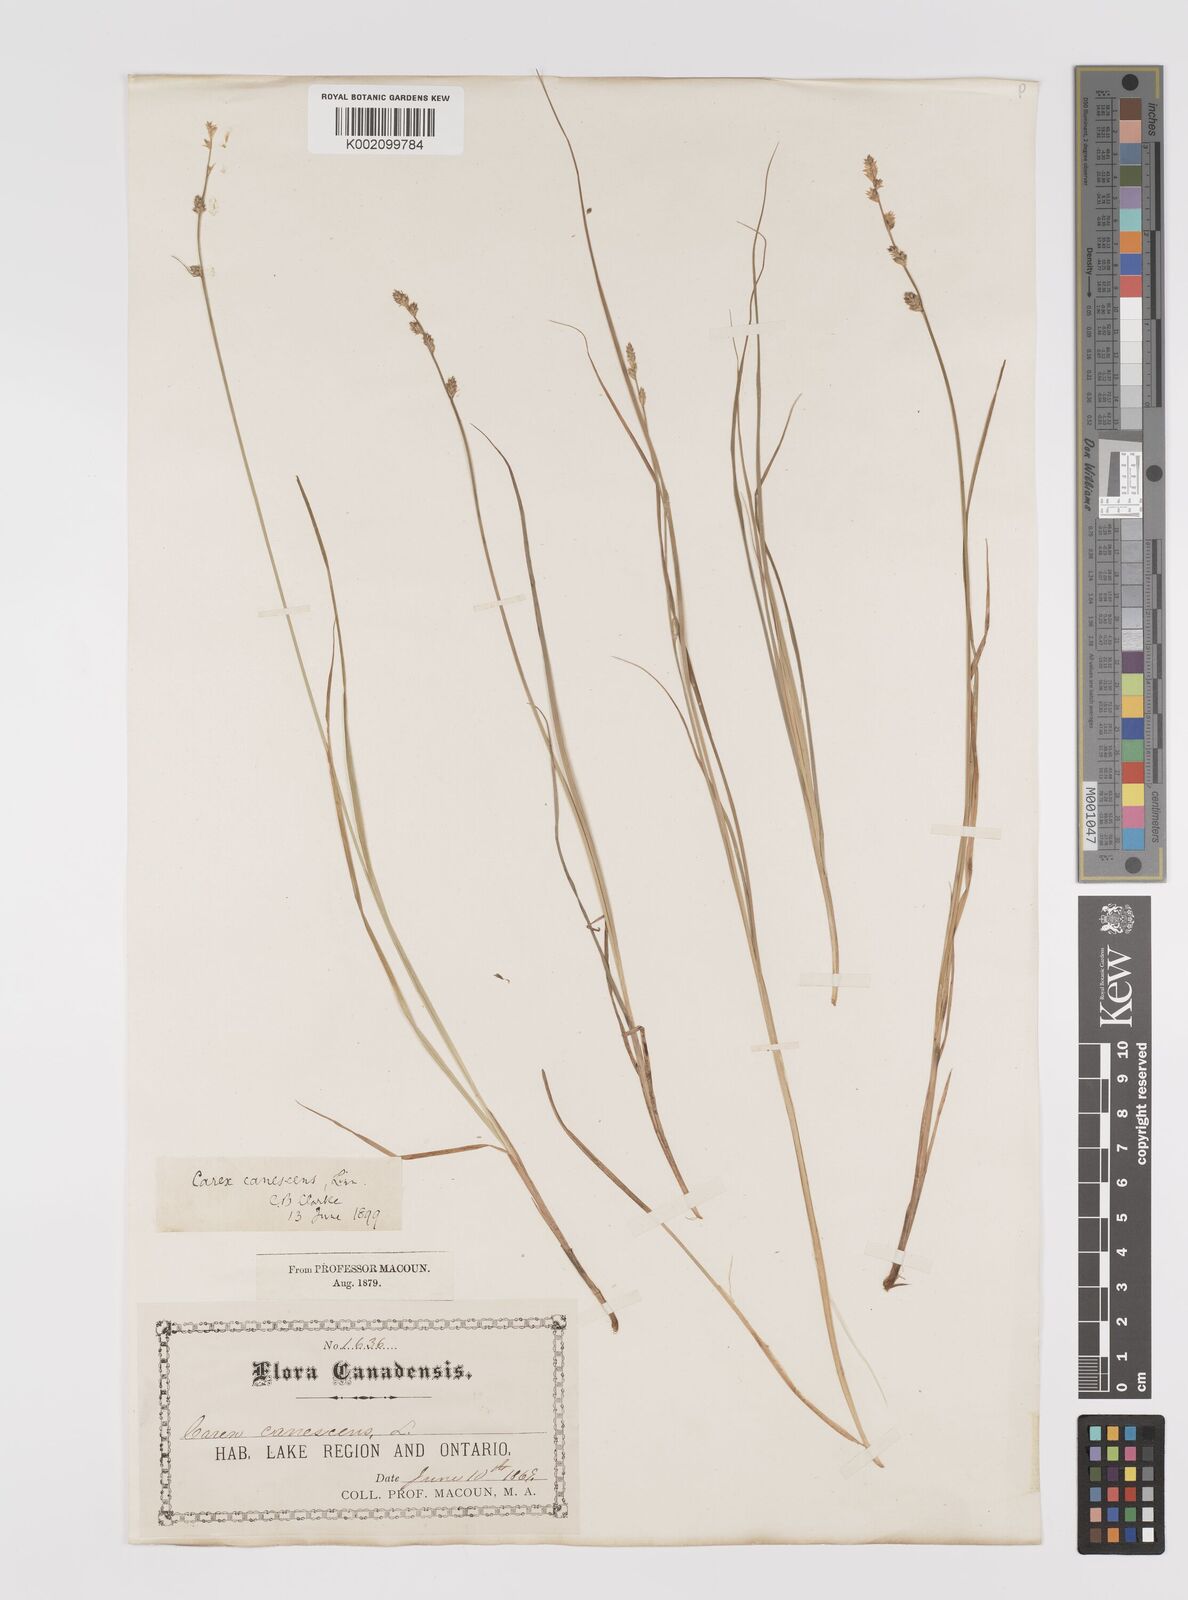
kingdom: Plantae
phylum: Tracheophyta
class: Liliopsida
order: Poales
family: Cyperaceae
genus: Carex
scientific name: Carex curta
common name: White sedge
